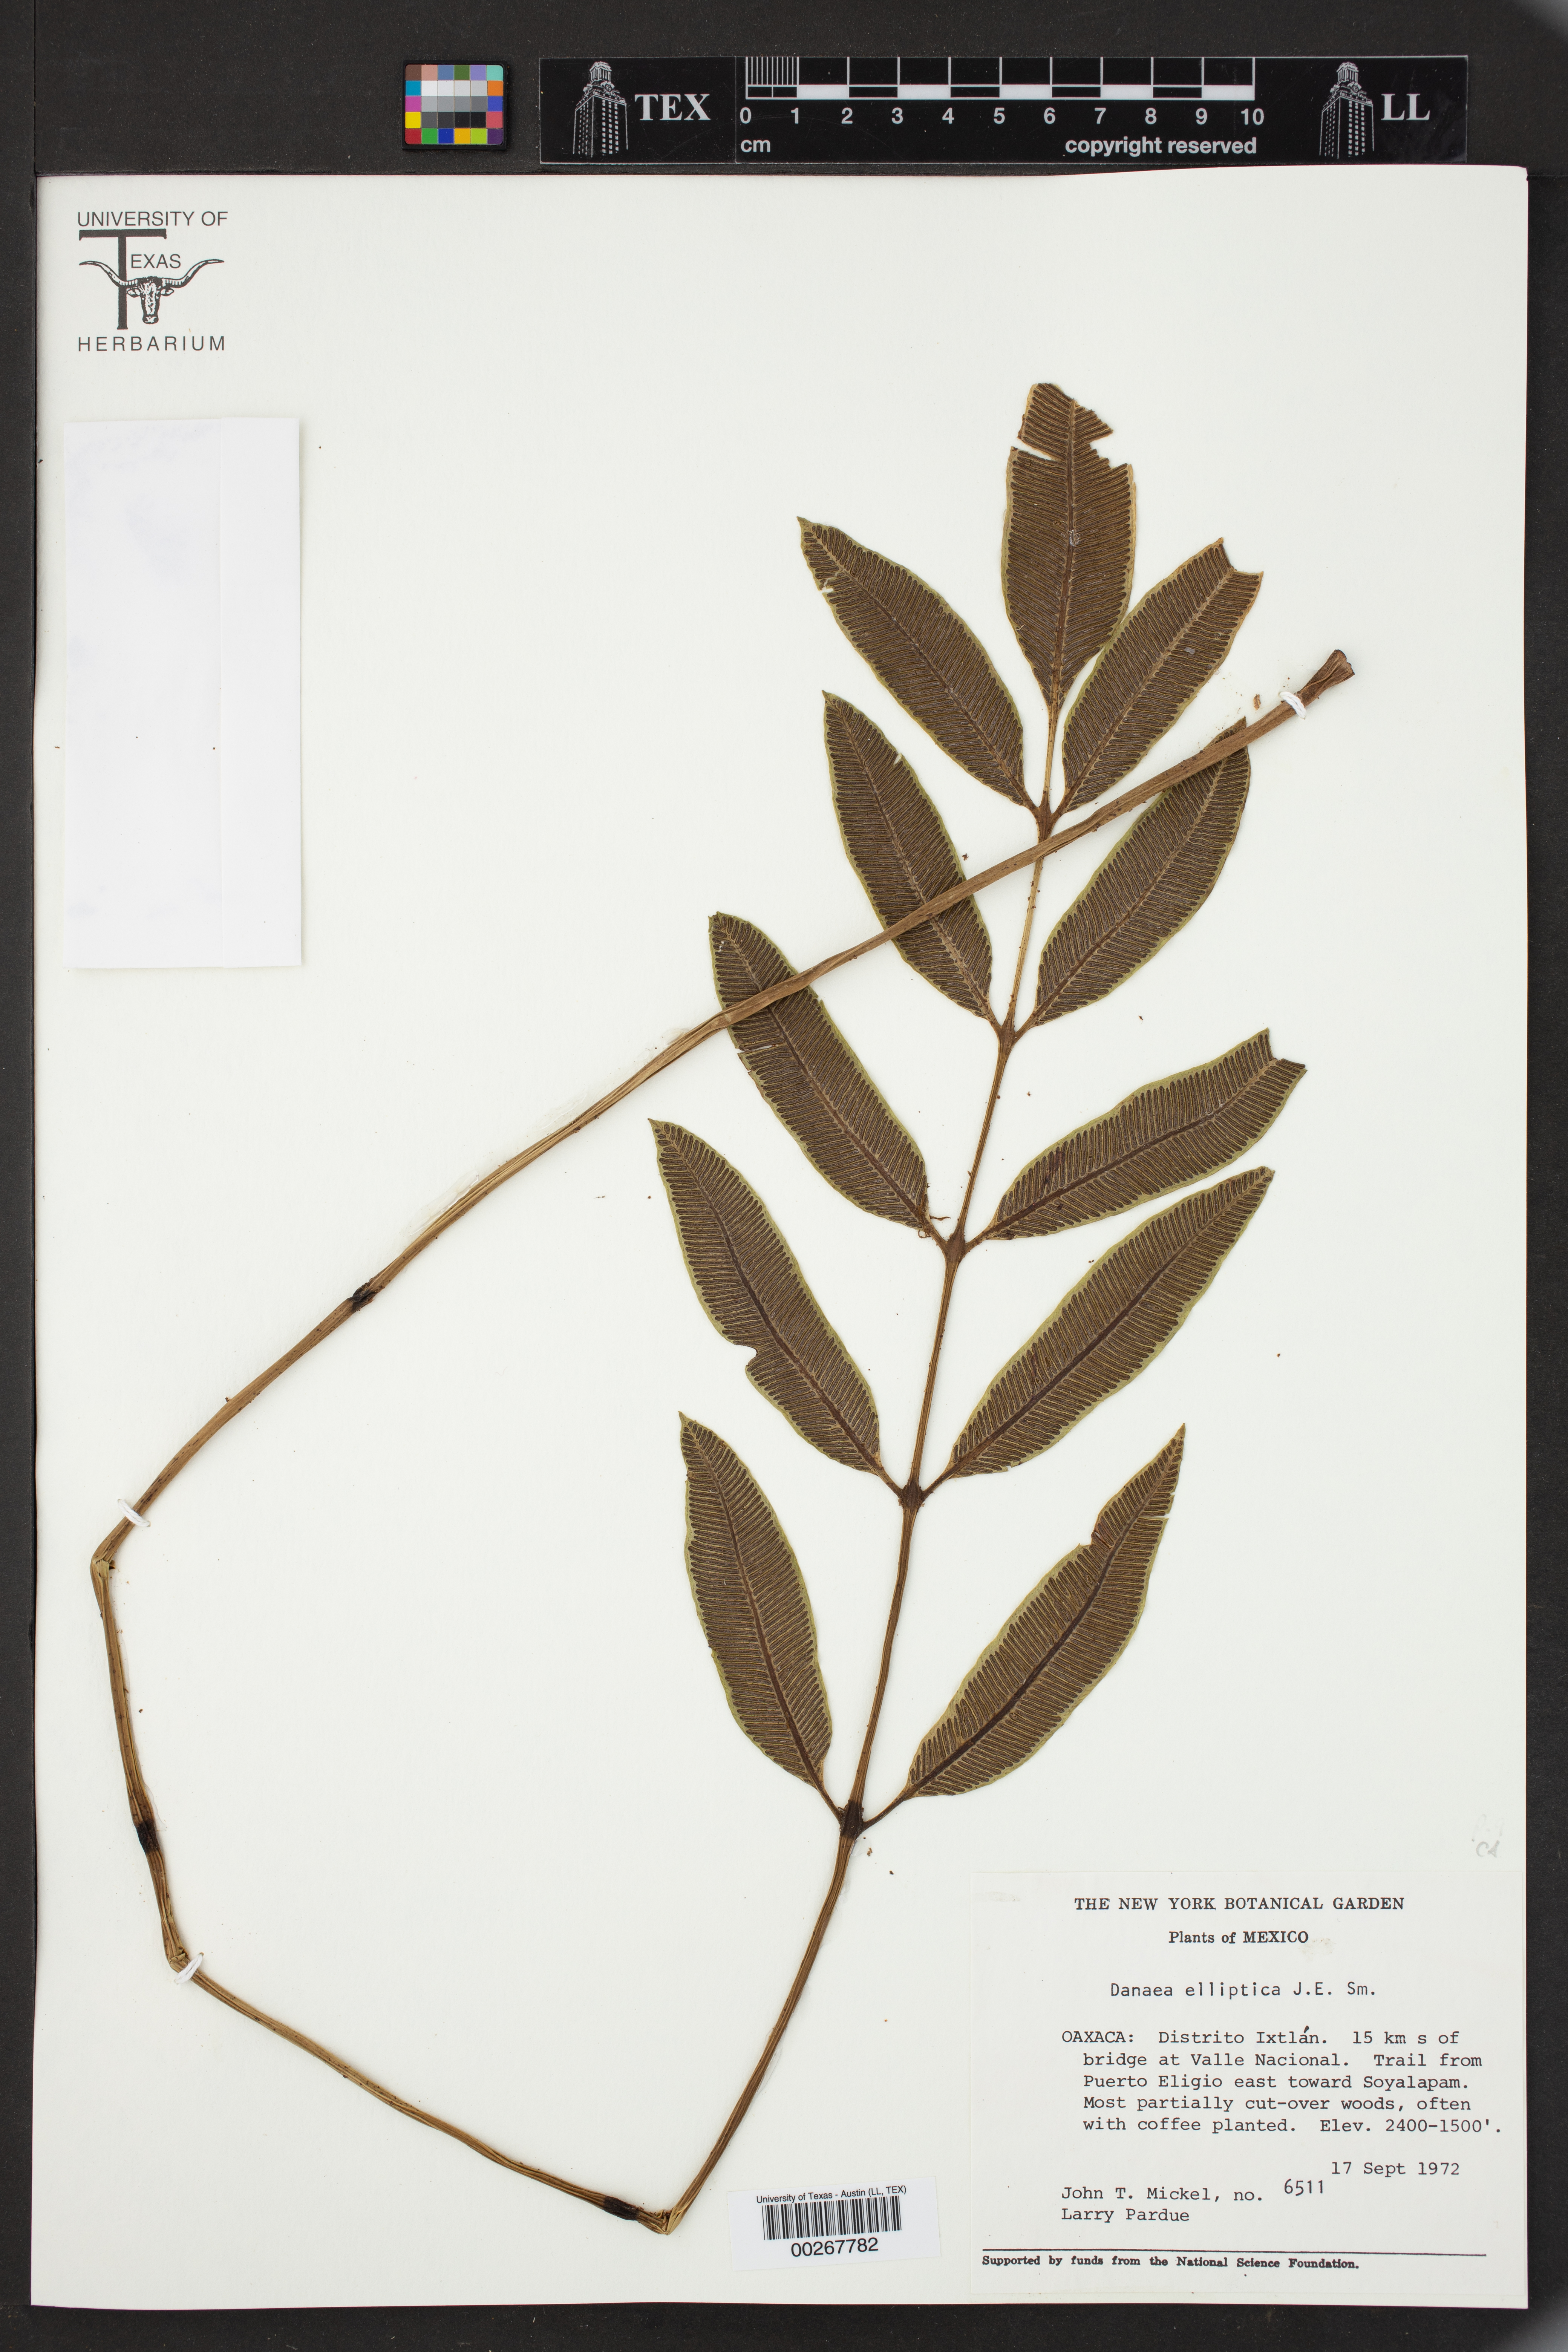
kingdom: Plantae
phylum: Tracheophyta
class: Polypodiopsida
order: Marattiales
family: Marattiaceae
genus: Danaea
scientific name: Danaea nodosa
